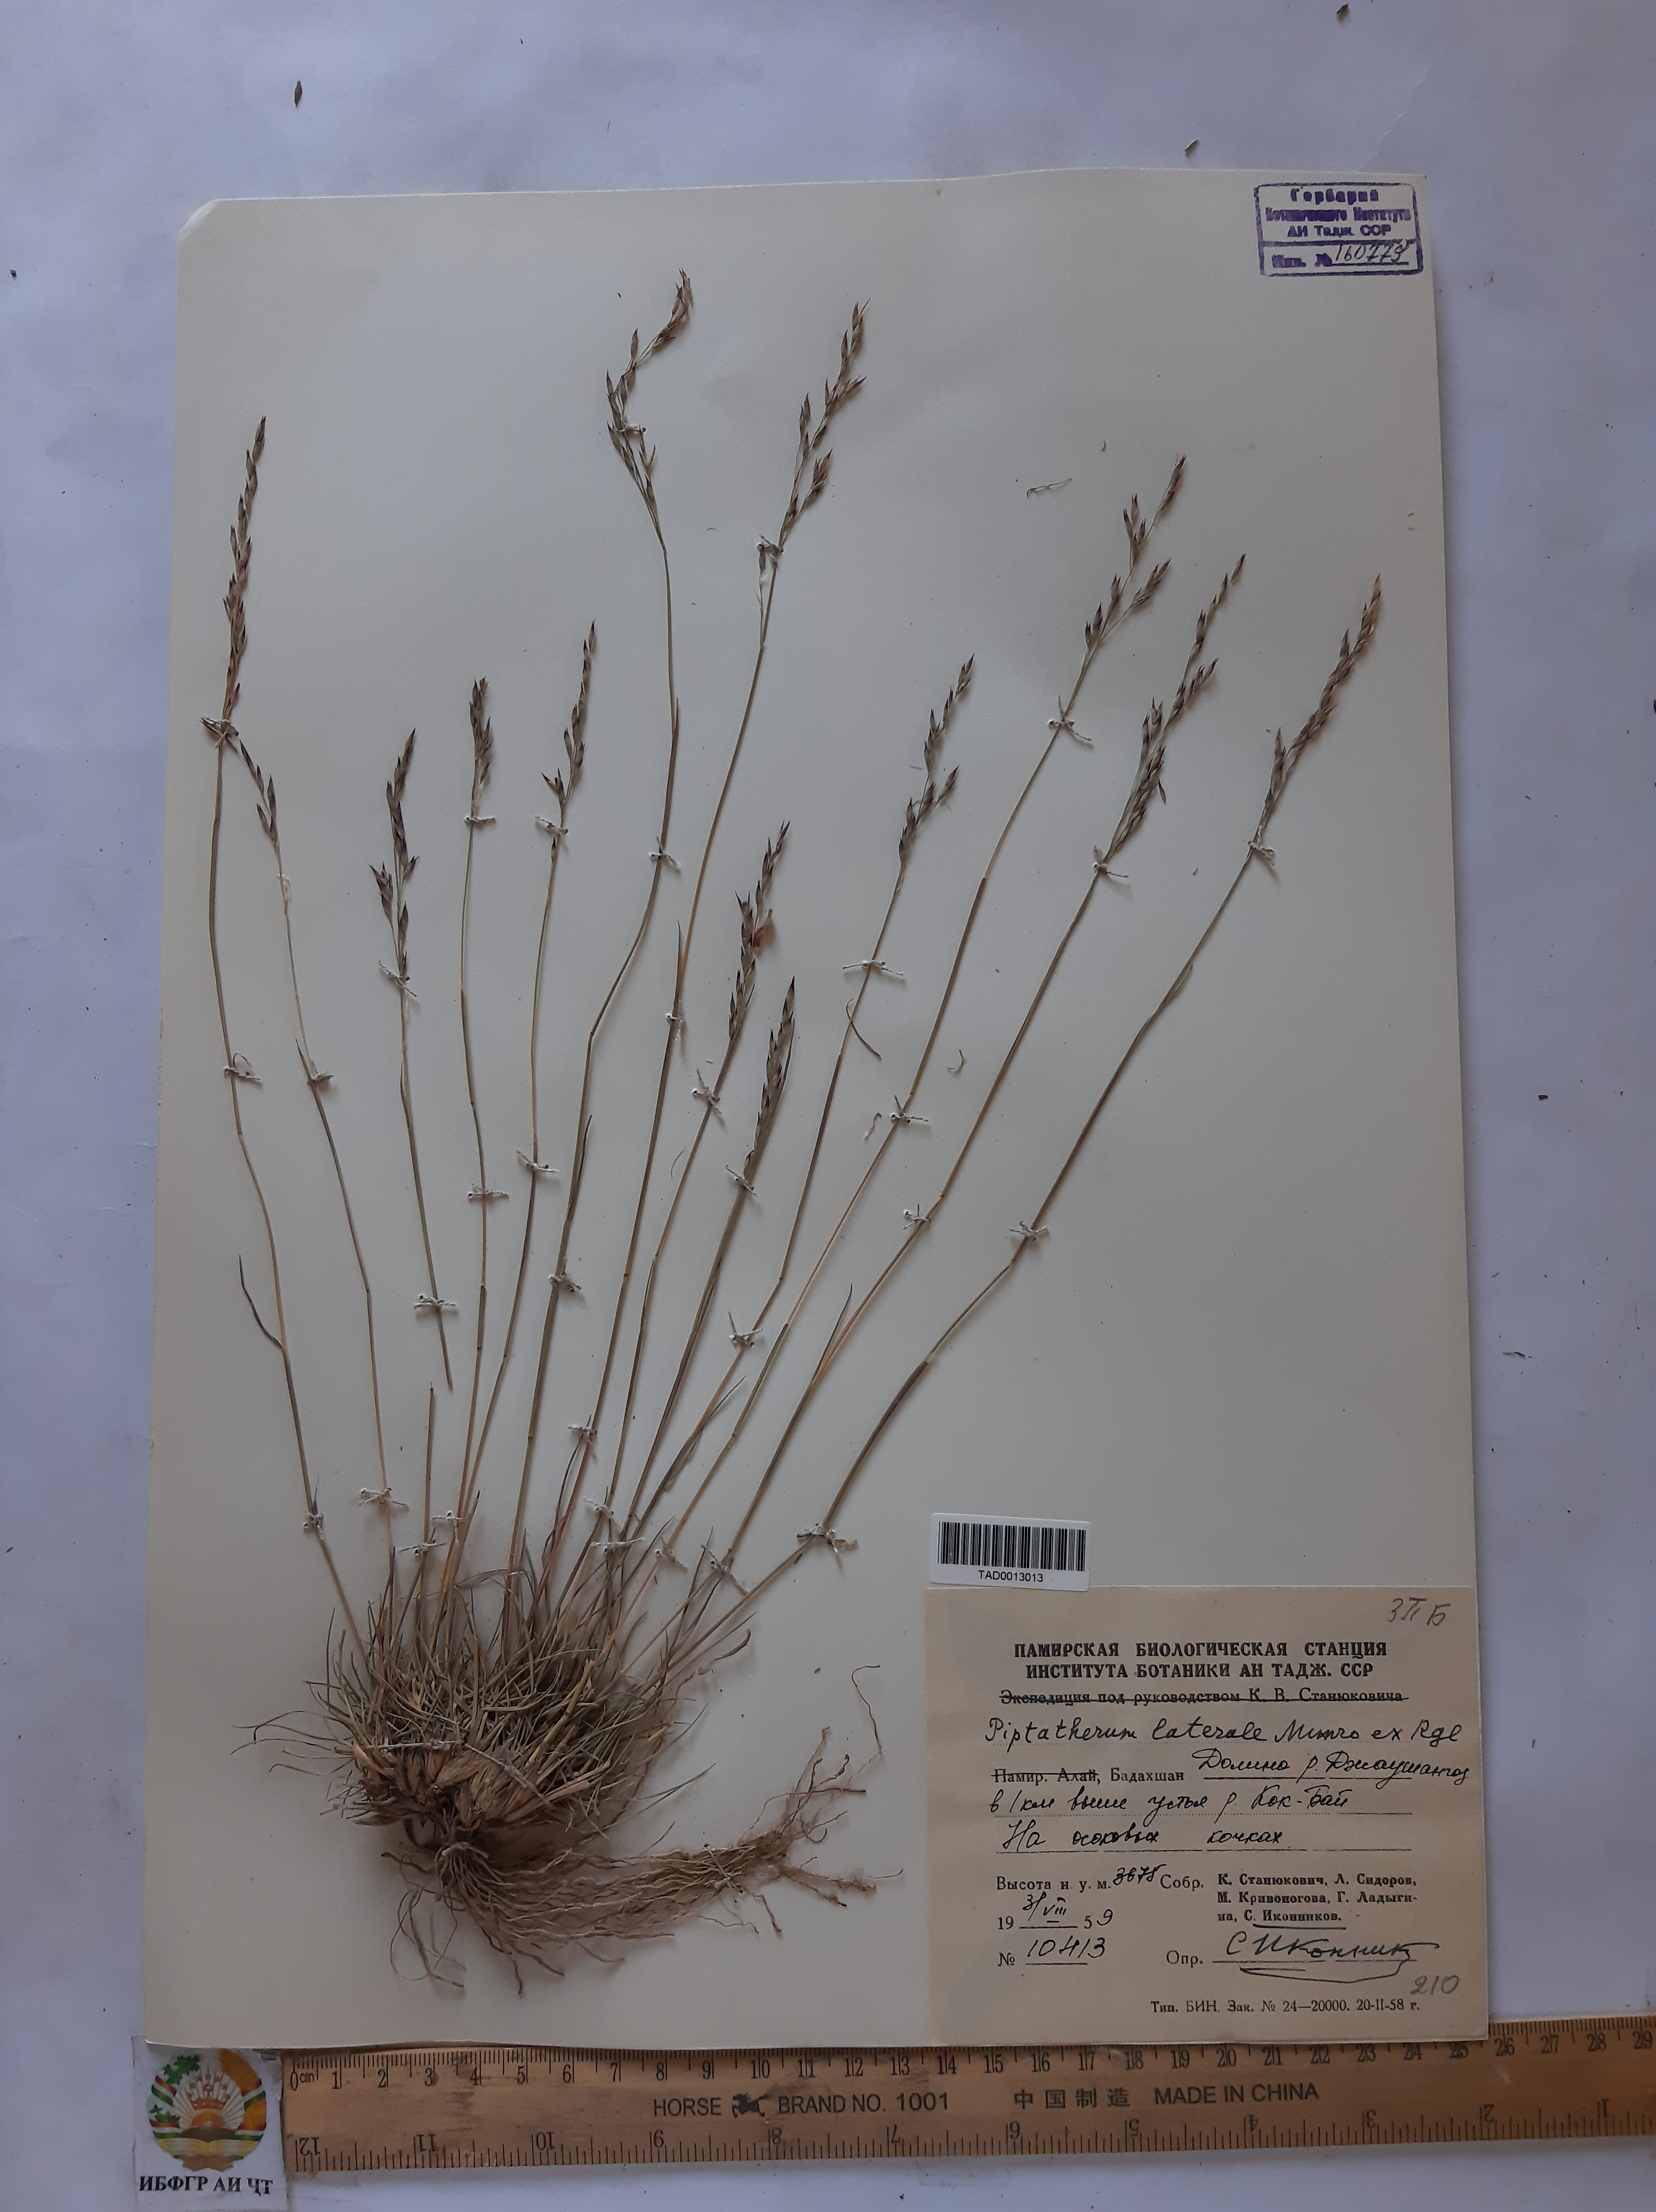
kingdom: Plantae
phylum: Tracheophyta
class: Liliopsida
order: Poales
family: Poaceae
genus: Piptatherum
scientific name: Piptatherum laterale
